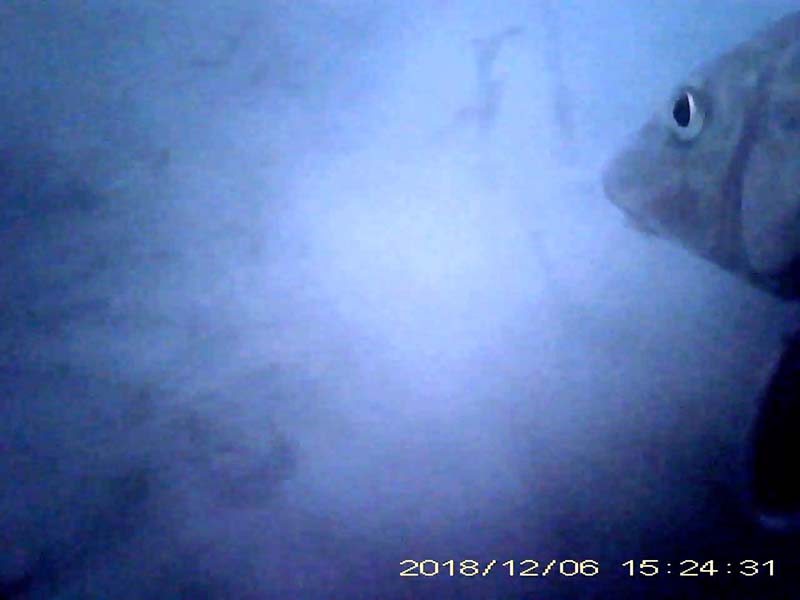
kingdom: Animalia
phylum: Chordata
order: Cypriniformes
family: Cyprinidae
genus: Hemibarbus
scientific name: Hemibarbus labeo
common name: ニゴイ
